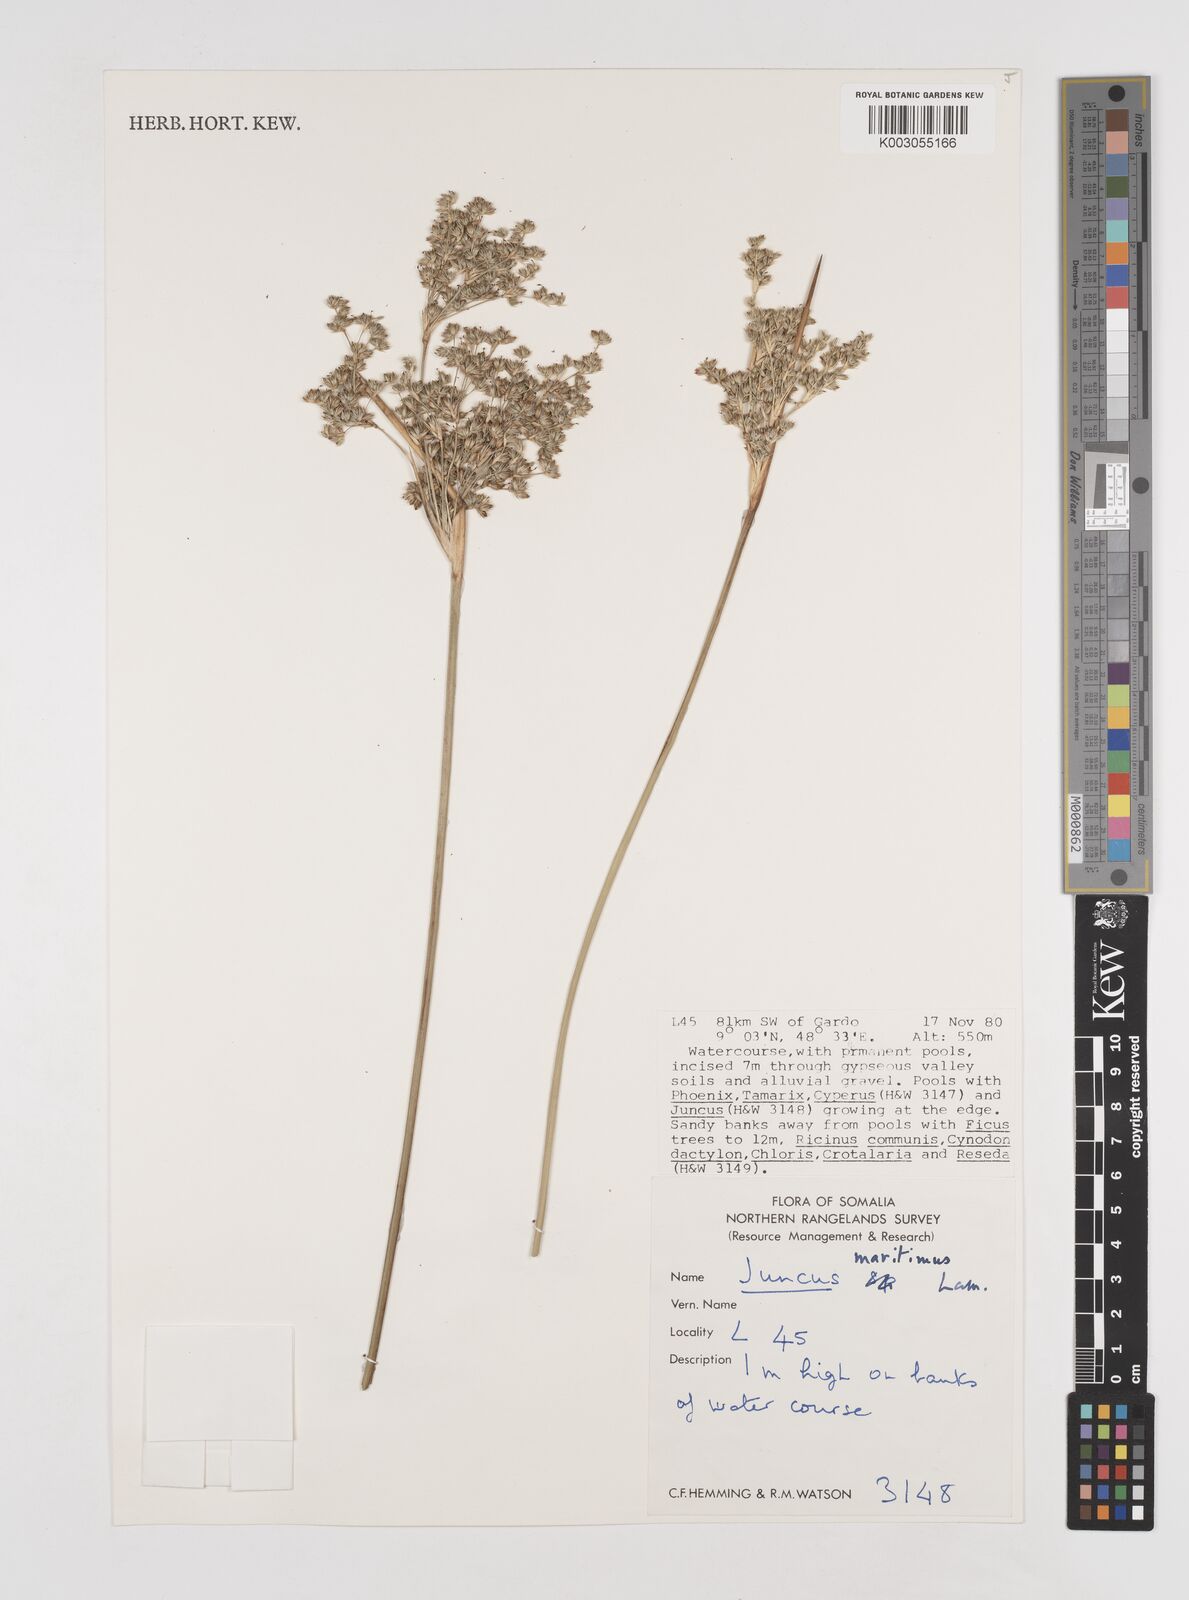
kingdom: Plantae
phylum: Tracheophyta
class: Liliopsida
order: Poales
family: Juncaceae
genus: Juncus
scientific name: Juncus kraussii
